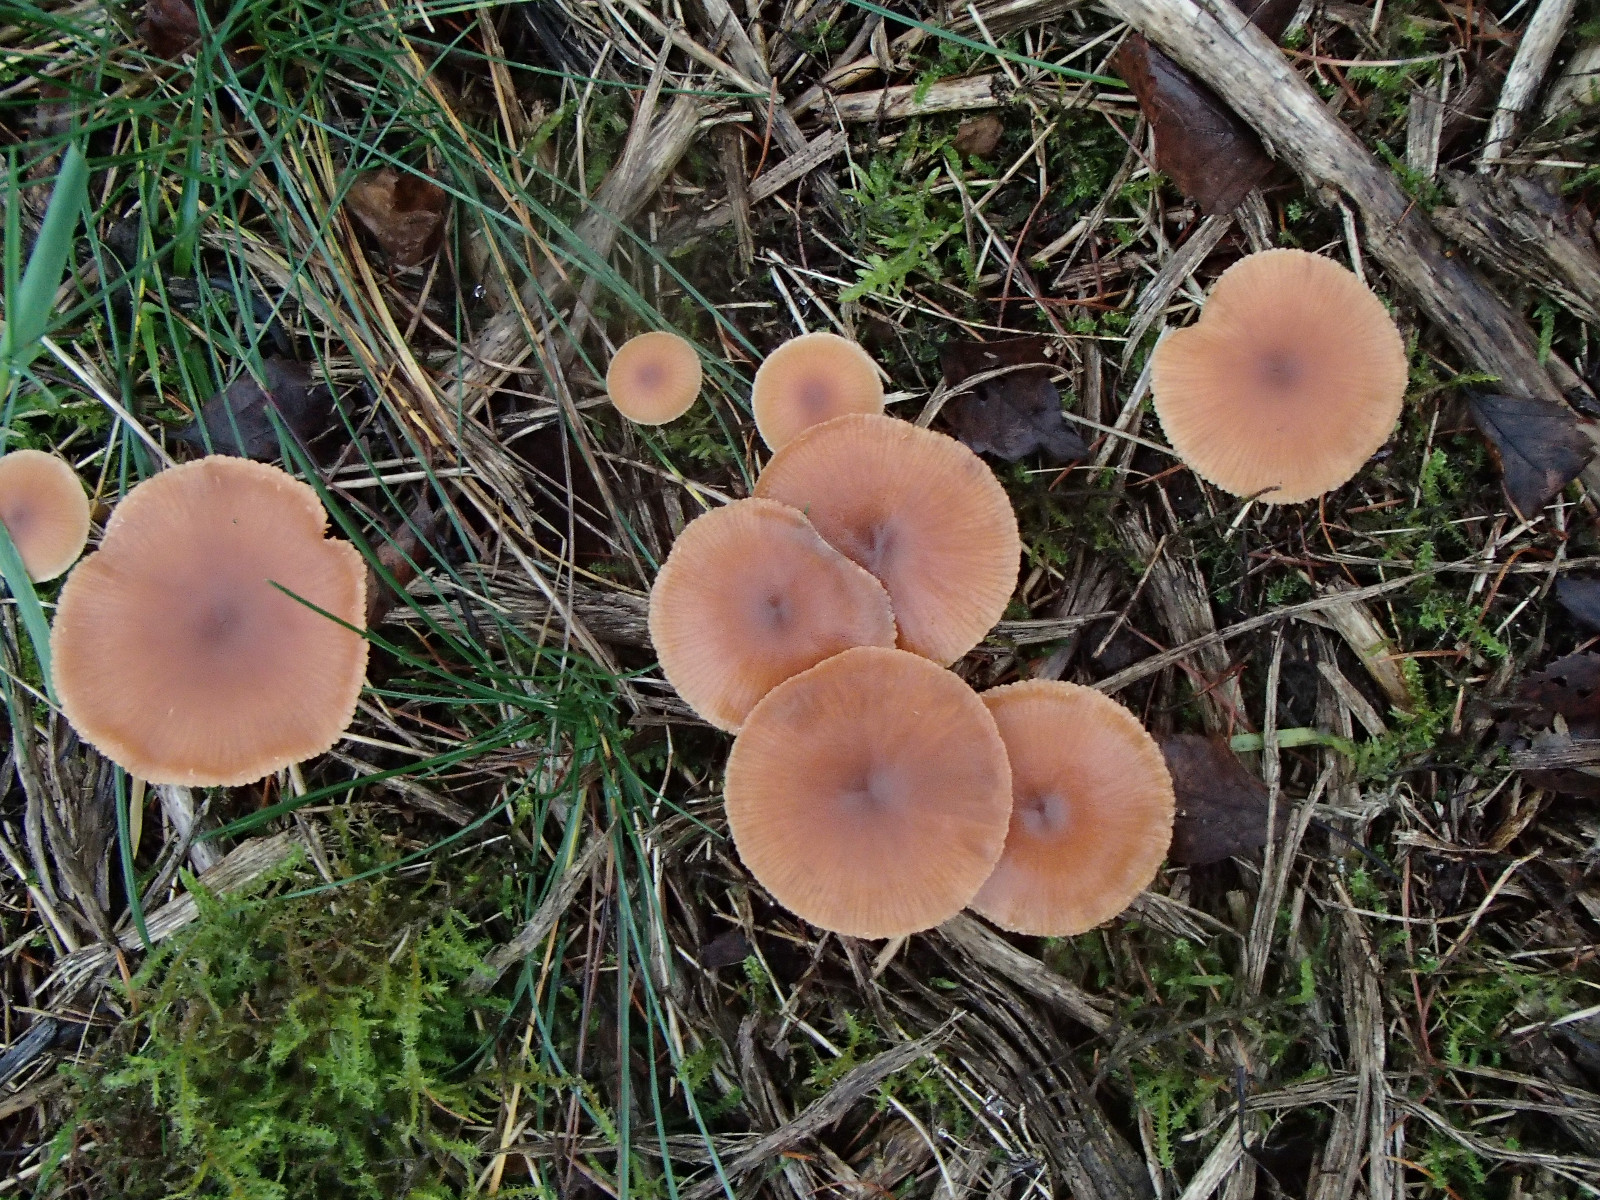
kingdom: Fungi
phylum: Basidiomycota
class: Agaricomycetes
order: Agaricales
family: Tubariaceae
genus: Tubaria
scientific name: Tubaria furfuracea
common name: kliddet fnughat
